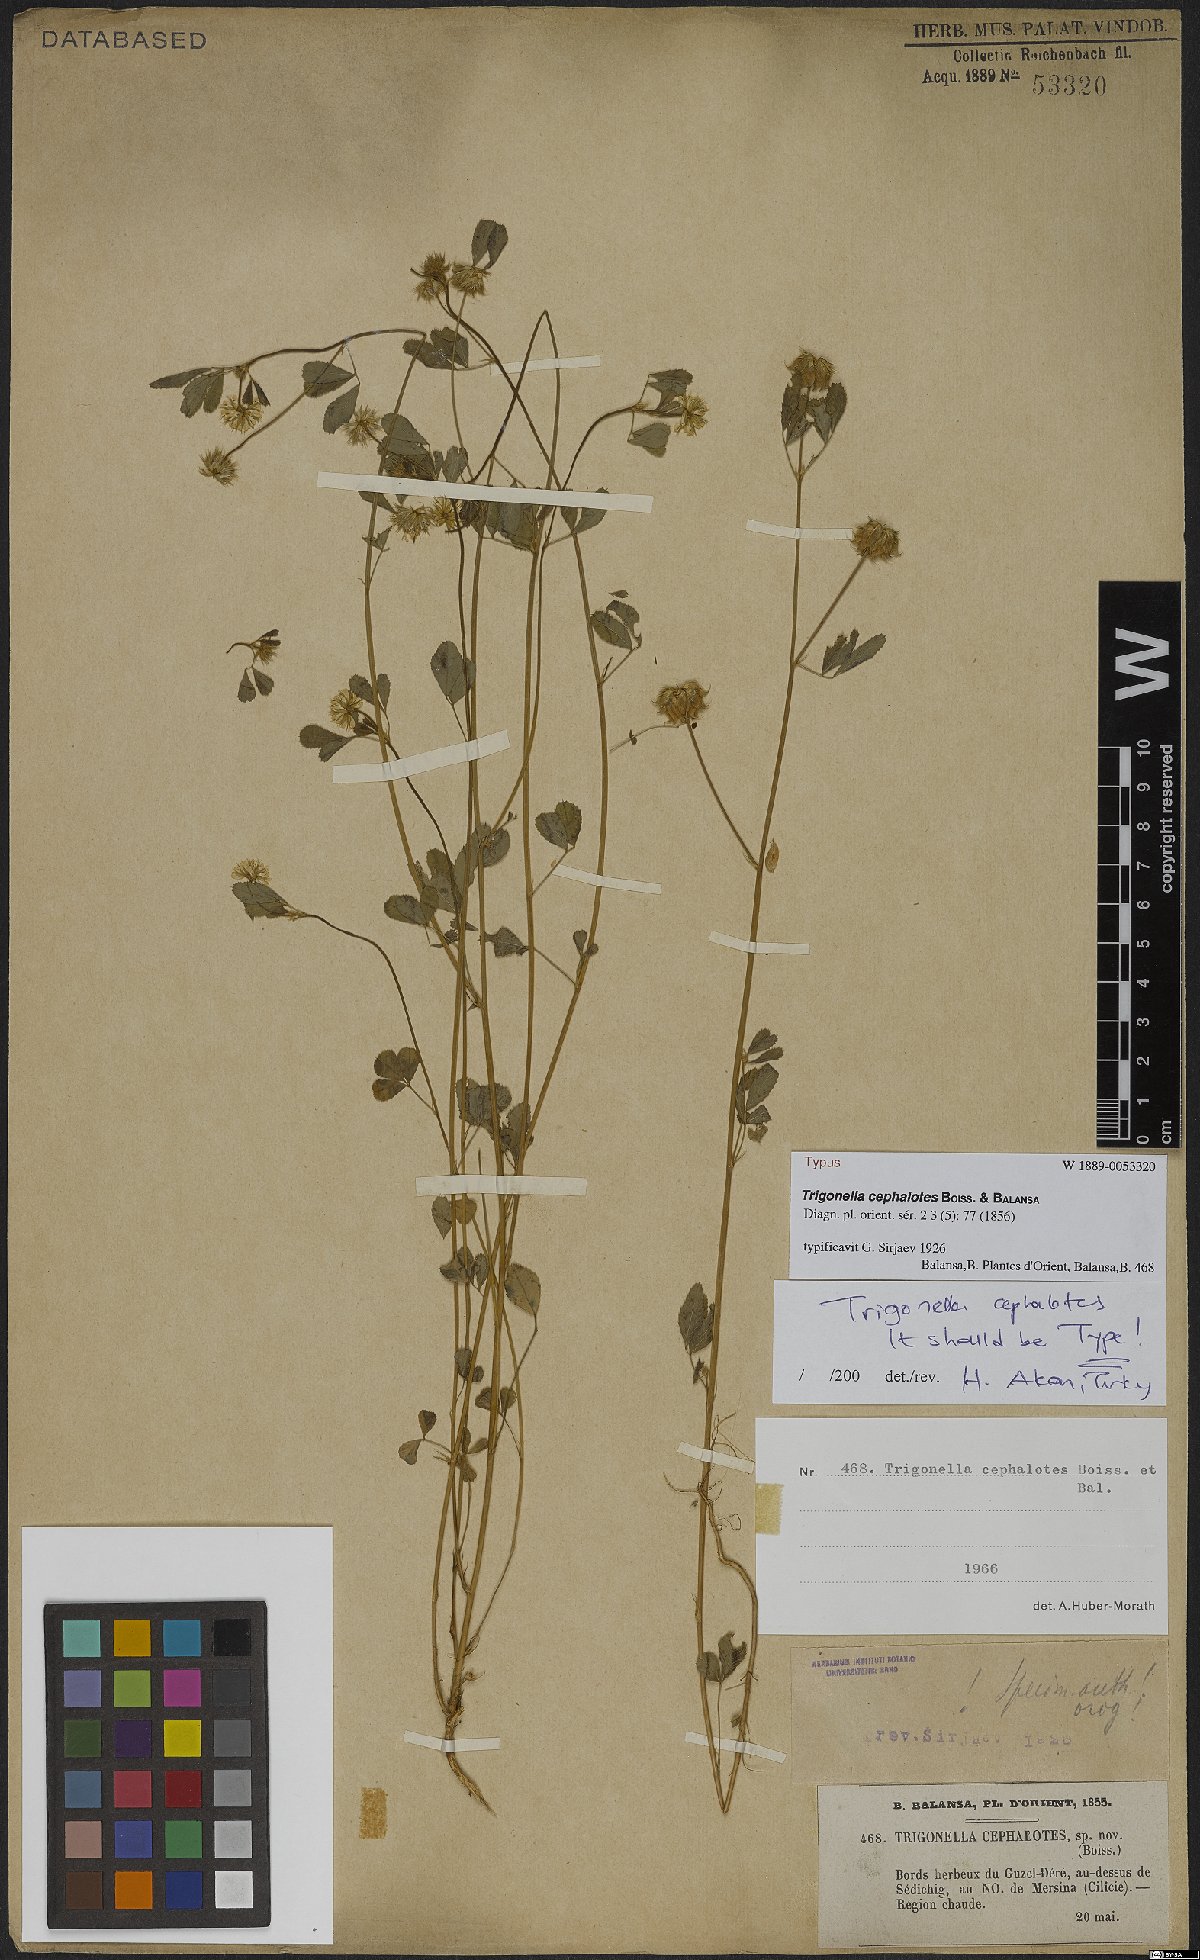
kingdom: Plantae
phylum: Tracheophyta
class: Magnoliopsida
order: Fabales
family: Fabaceae
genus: Trigonella
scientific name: Trigonella cephalotes
